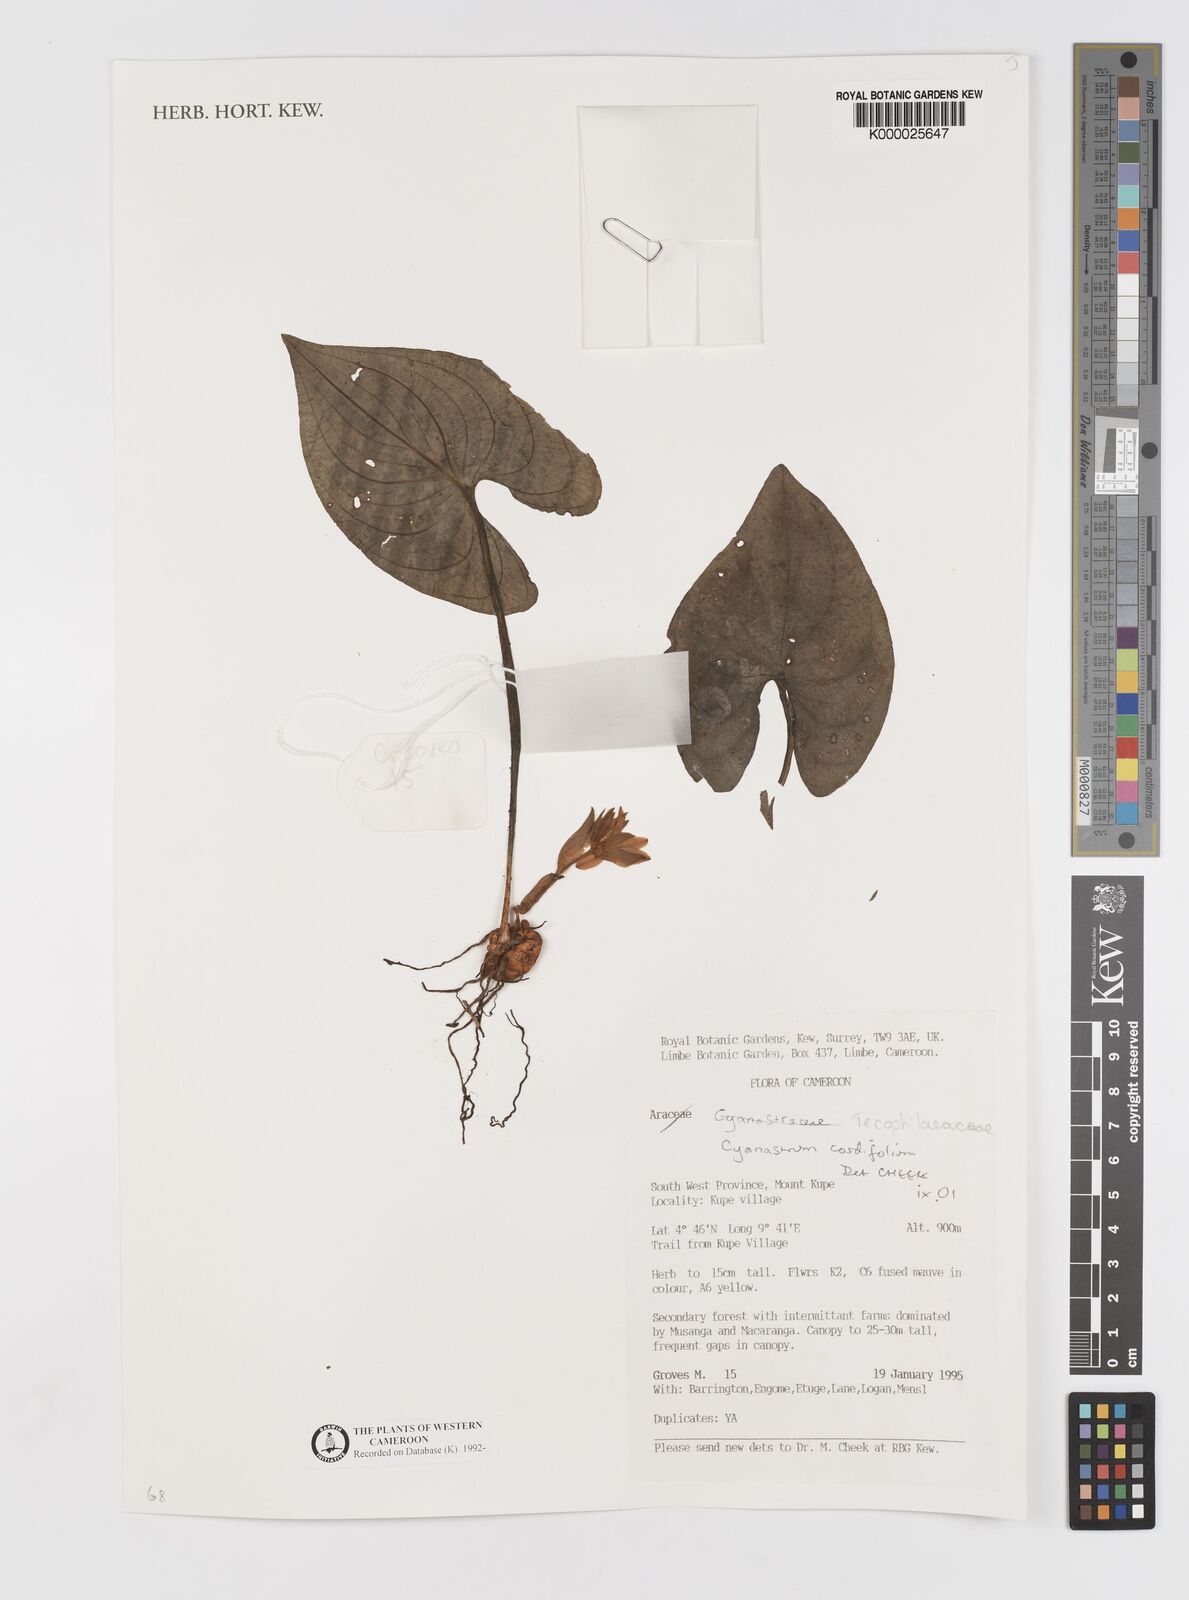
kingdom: Plantae
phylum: Tracheophyta
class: Liliopsida
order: Asparagales
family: Tecophilaeaceae
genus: Cyanastrum
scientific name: Cyanastrum cordifolium
